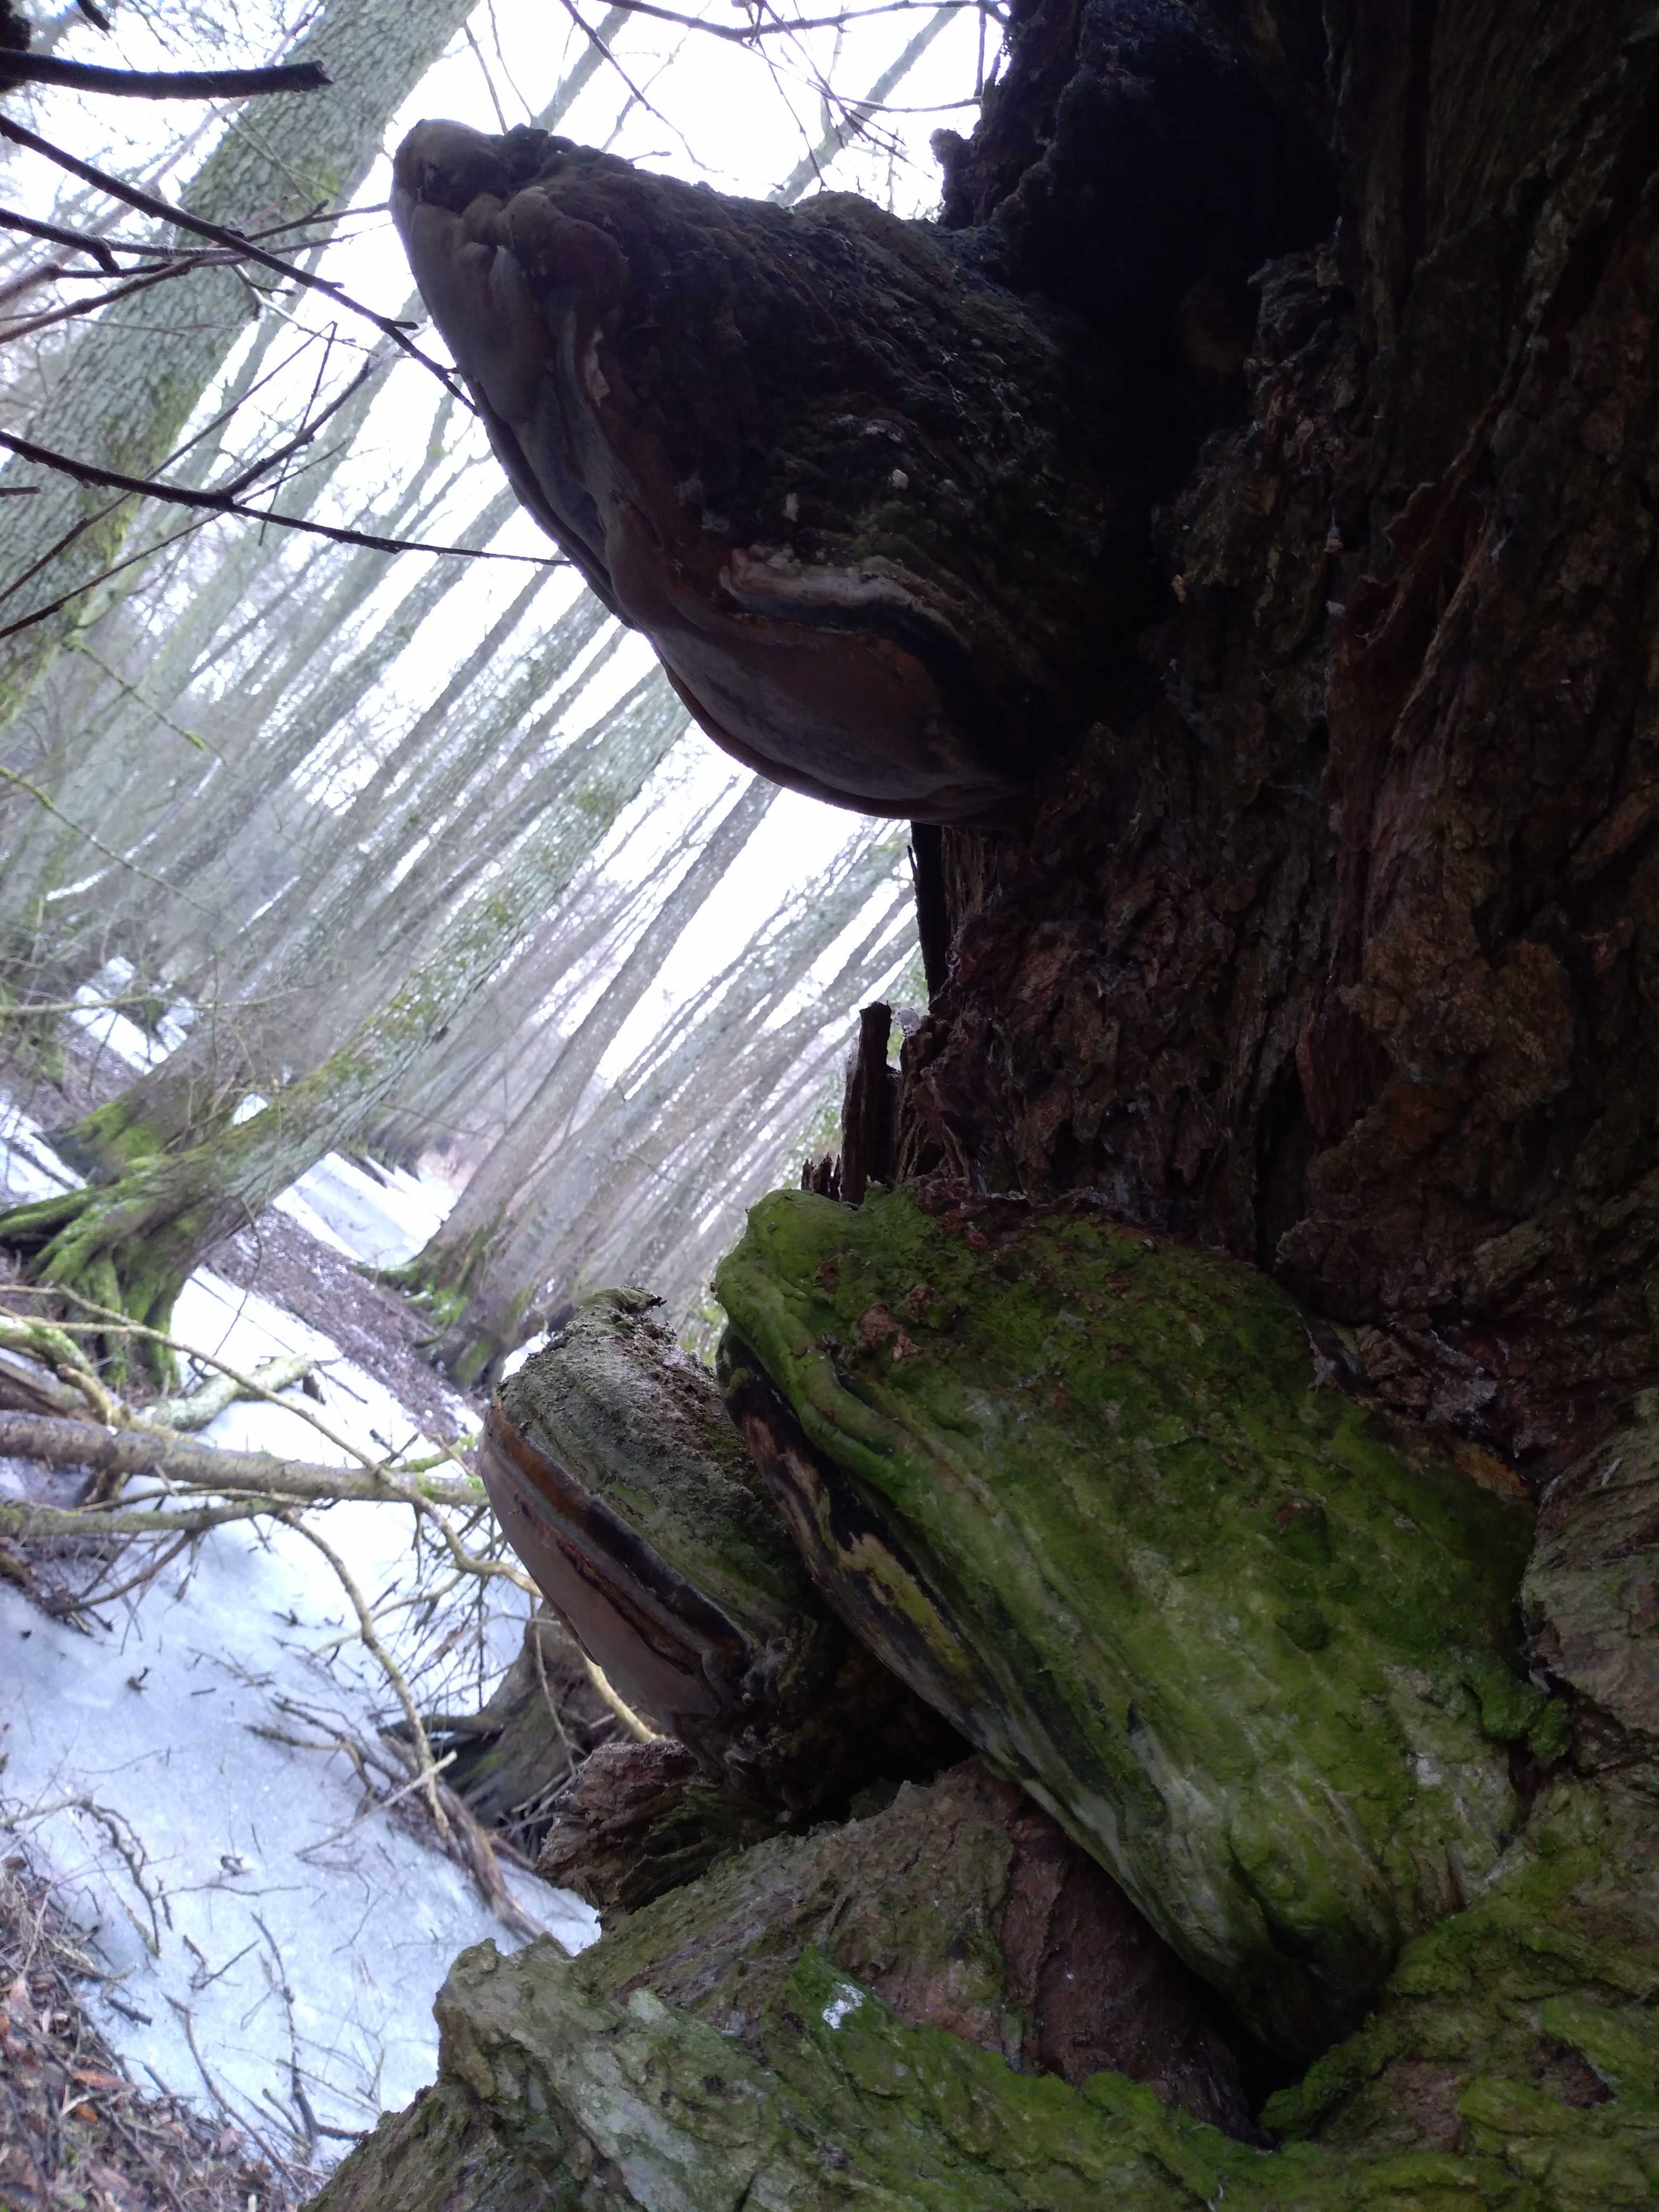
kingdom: Fungi
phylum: Basidiomycota
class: Agaricomycetes
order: Polyporales
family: Polyporaceae
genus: Fomes
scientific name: Fomes fomentarius
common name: tøndersvamp
